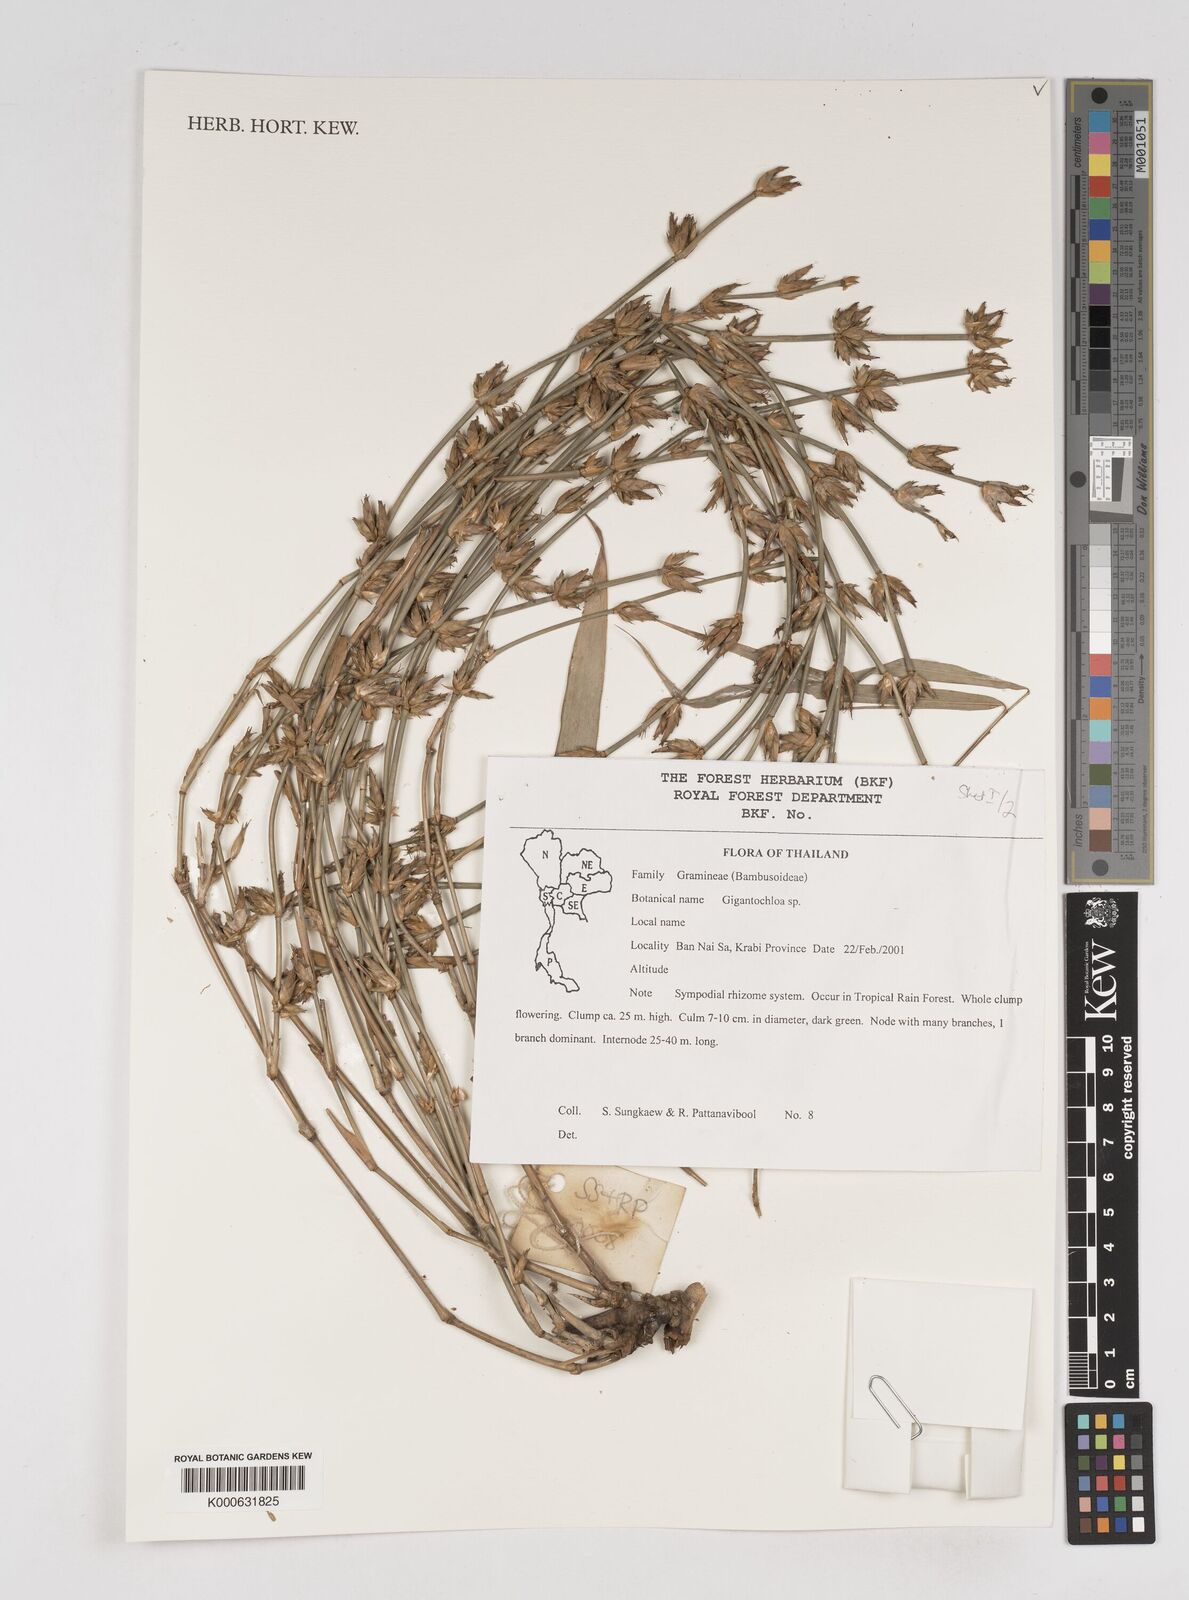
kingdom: Plantae
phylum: Tracheophyta
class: Liliopsida
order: Poales
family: Poaceae
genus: Gigantochloa
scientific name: Gigantochloa
